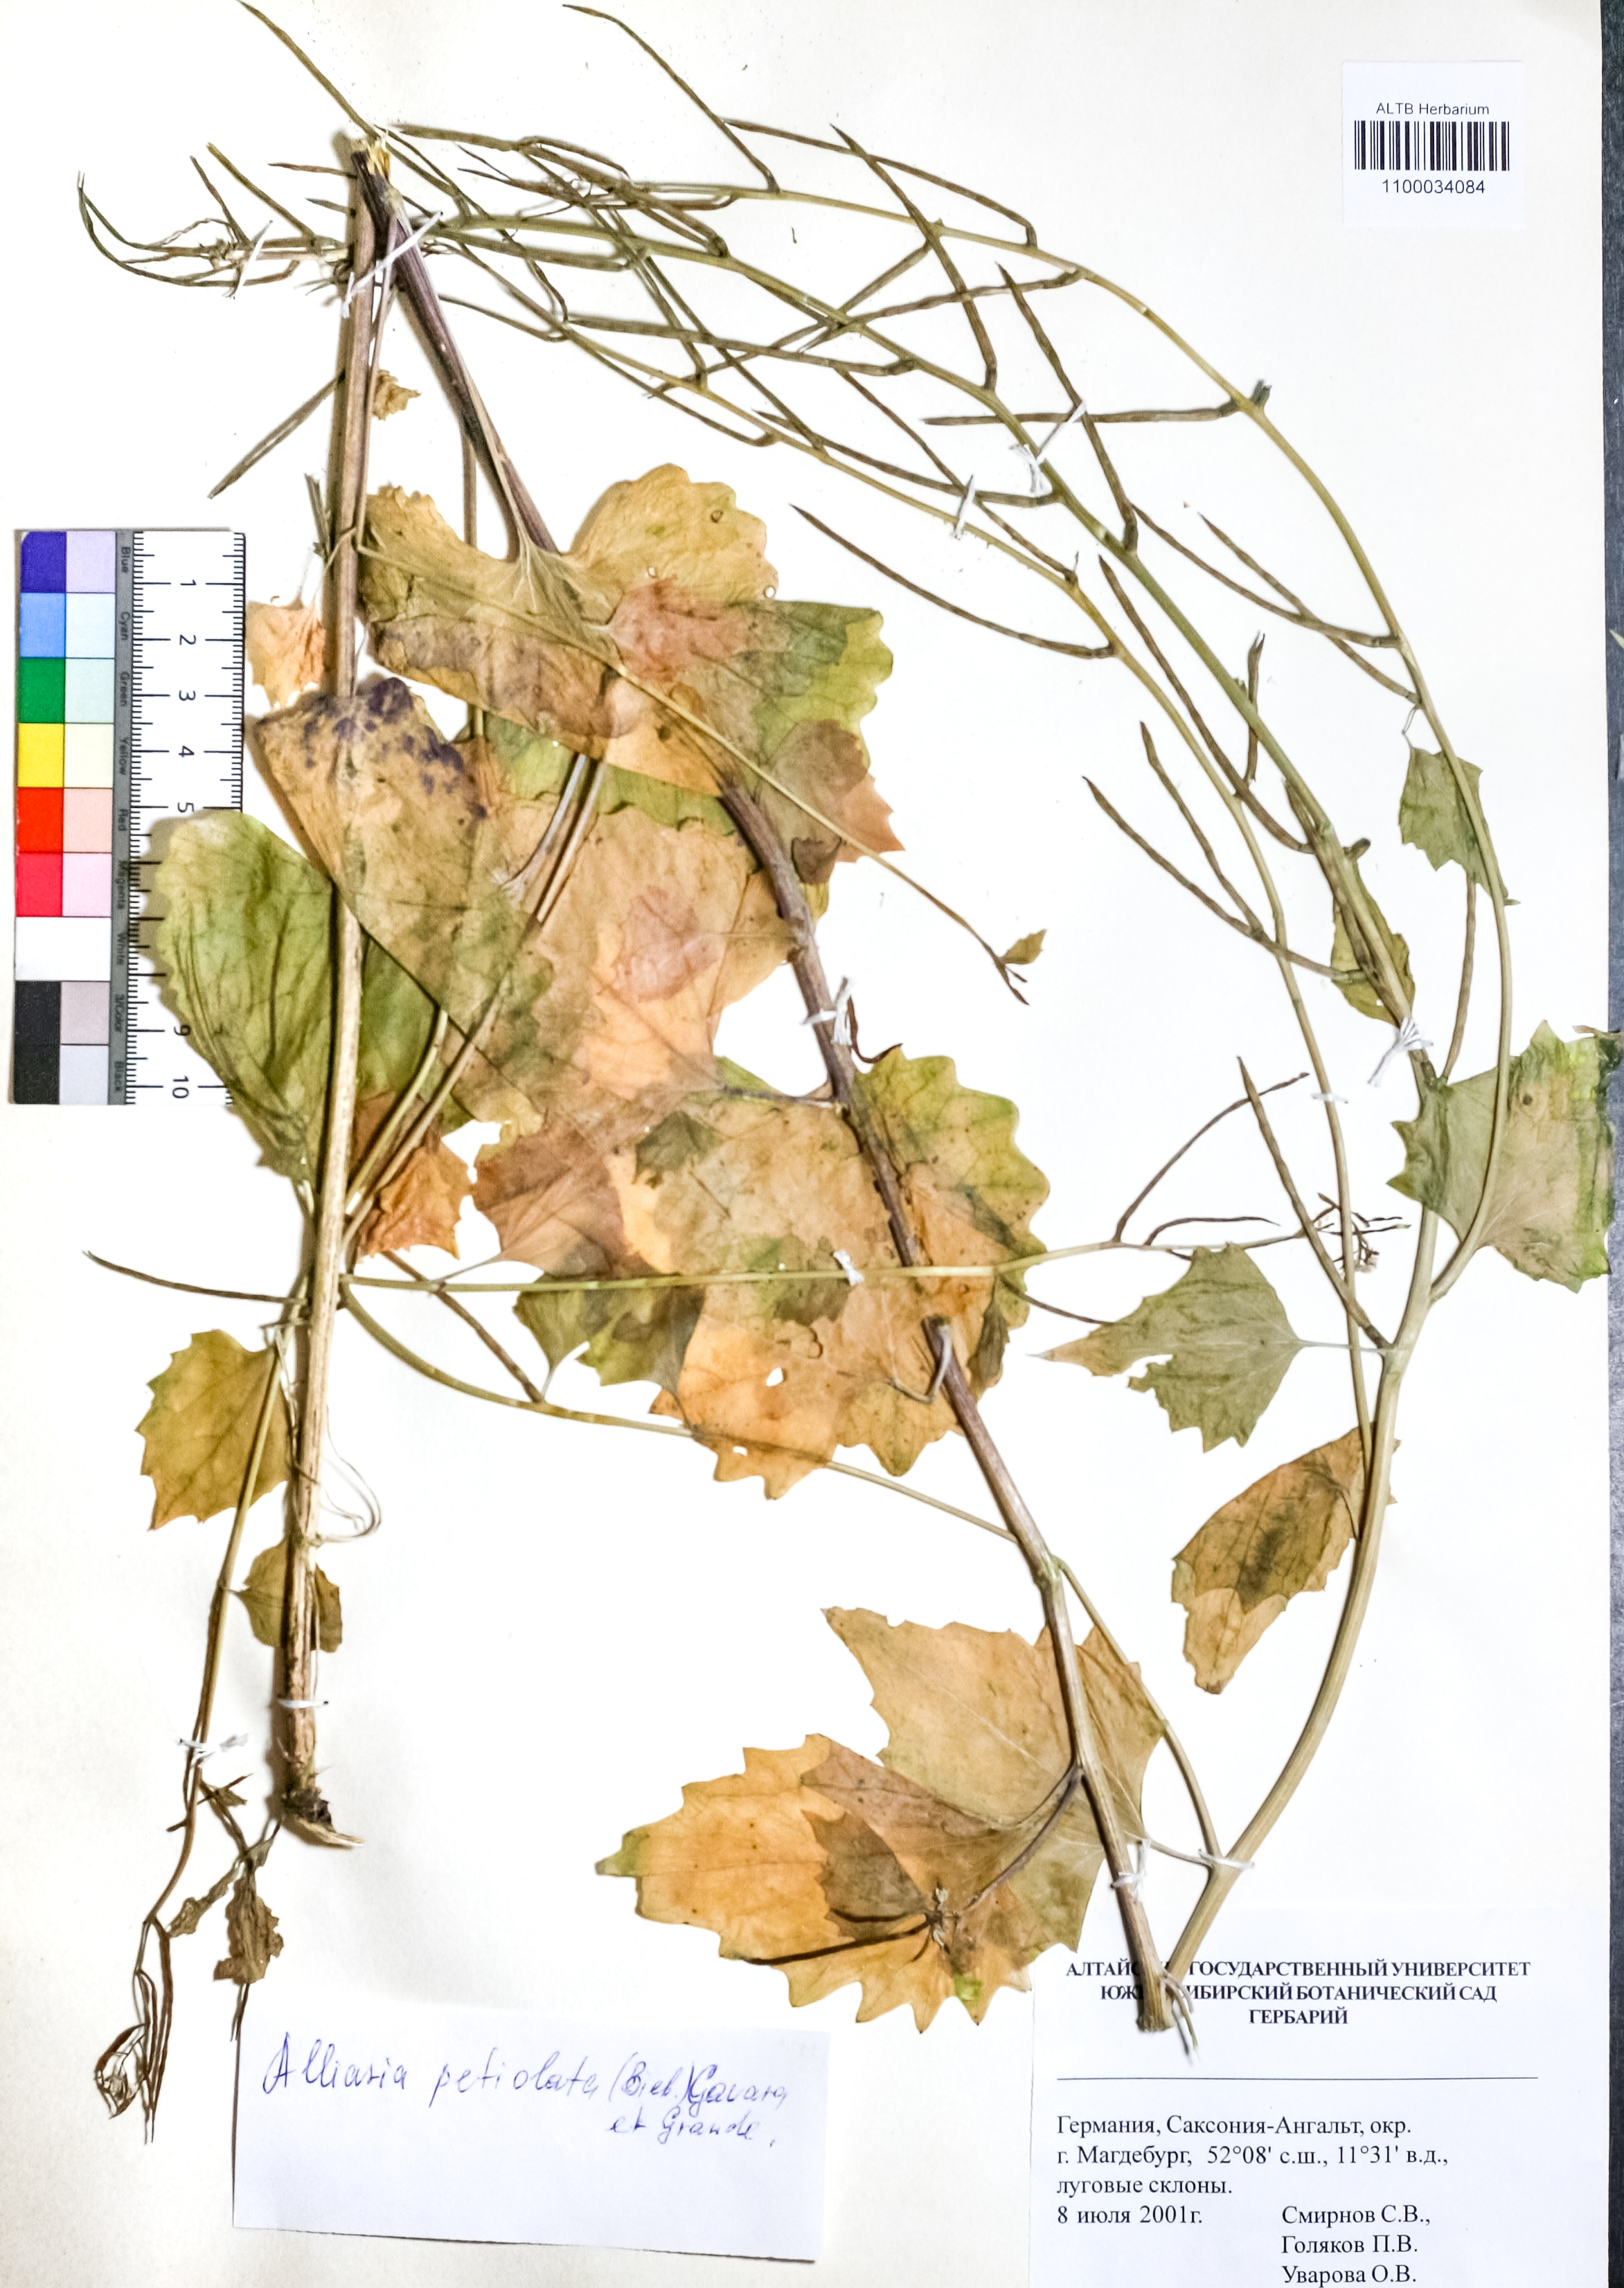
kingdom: Plantae
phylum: Tracheophyta
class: Magnoliopsida
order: Brassicales
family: Brassicaceae
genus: Alliaria
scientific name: Alliaria petiolata
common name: Garlic mustard
